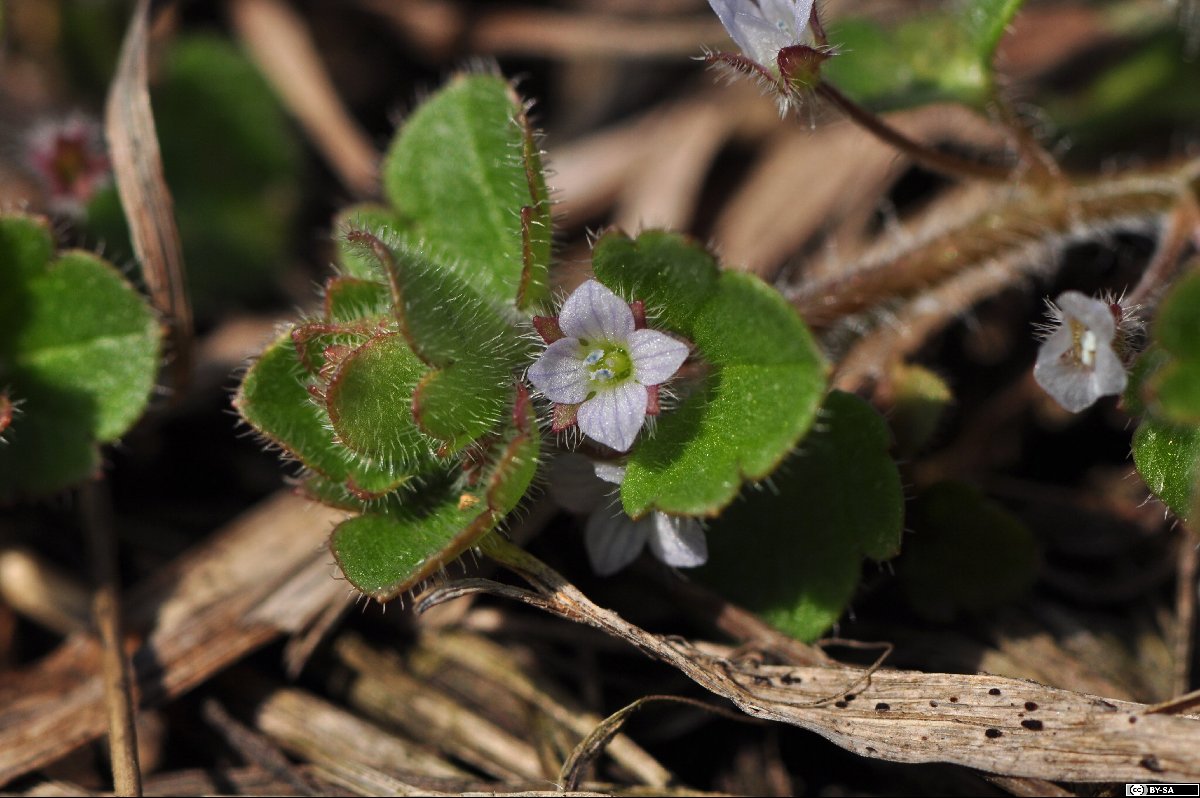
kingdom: Plantae
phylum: Tracheophyta
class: Magnoliopsida
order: Lamiales
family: Plantaginaceae
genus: Veronica
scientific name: Veronica sublobata
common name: False ivy-leaved speedwell
